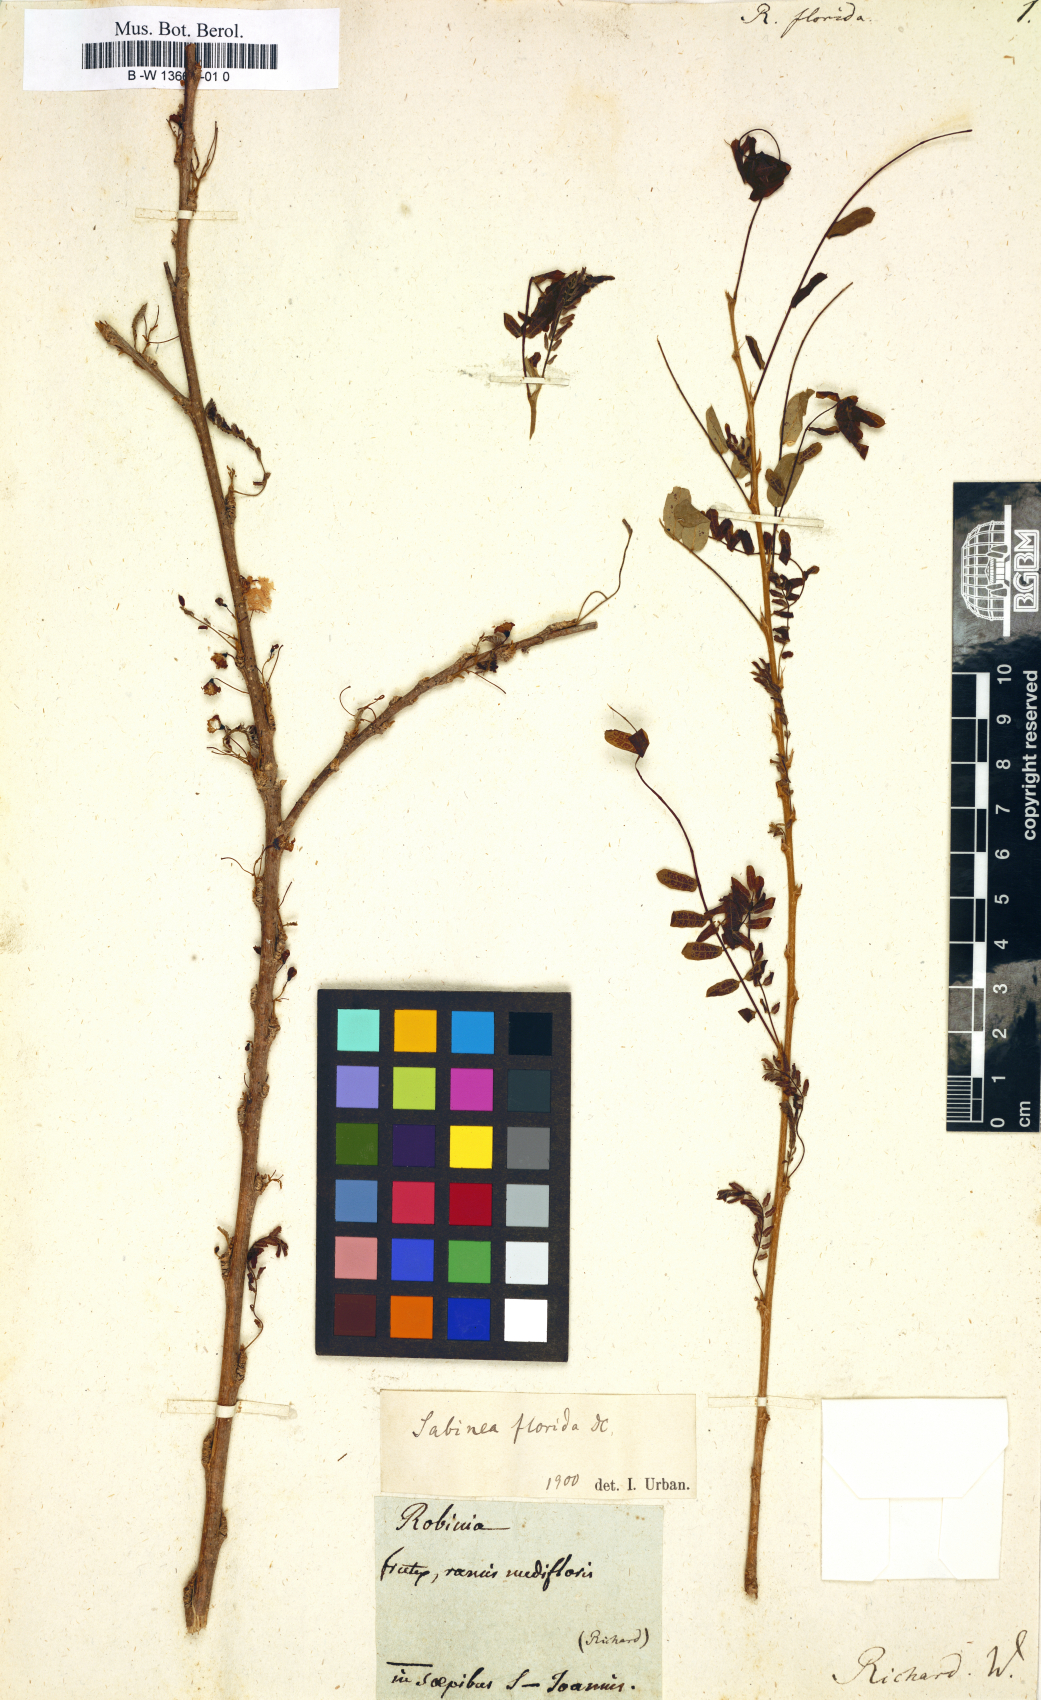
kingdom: Plantae
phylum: Tracheophyta
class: Magnoliopsida
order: Fabales
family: Fabaceae
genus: Poitea
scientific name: Poitea florida
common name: Soldier whip
